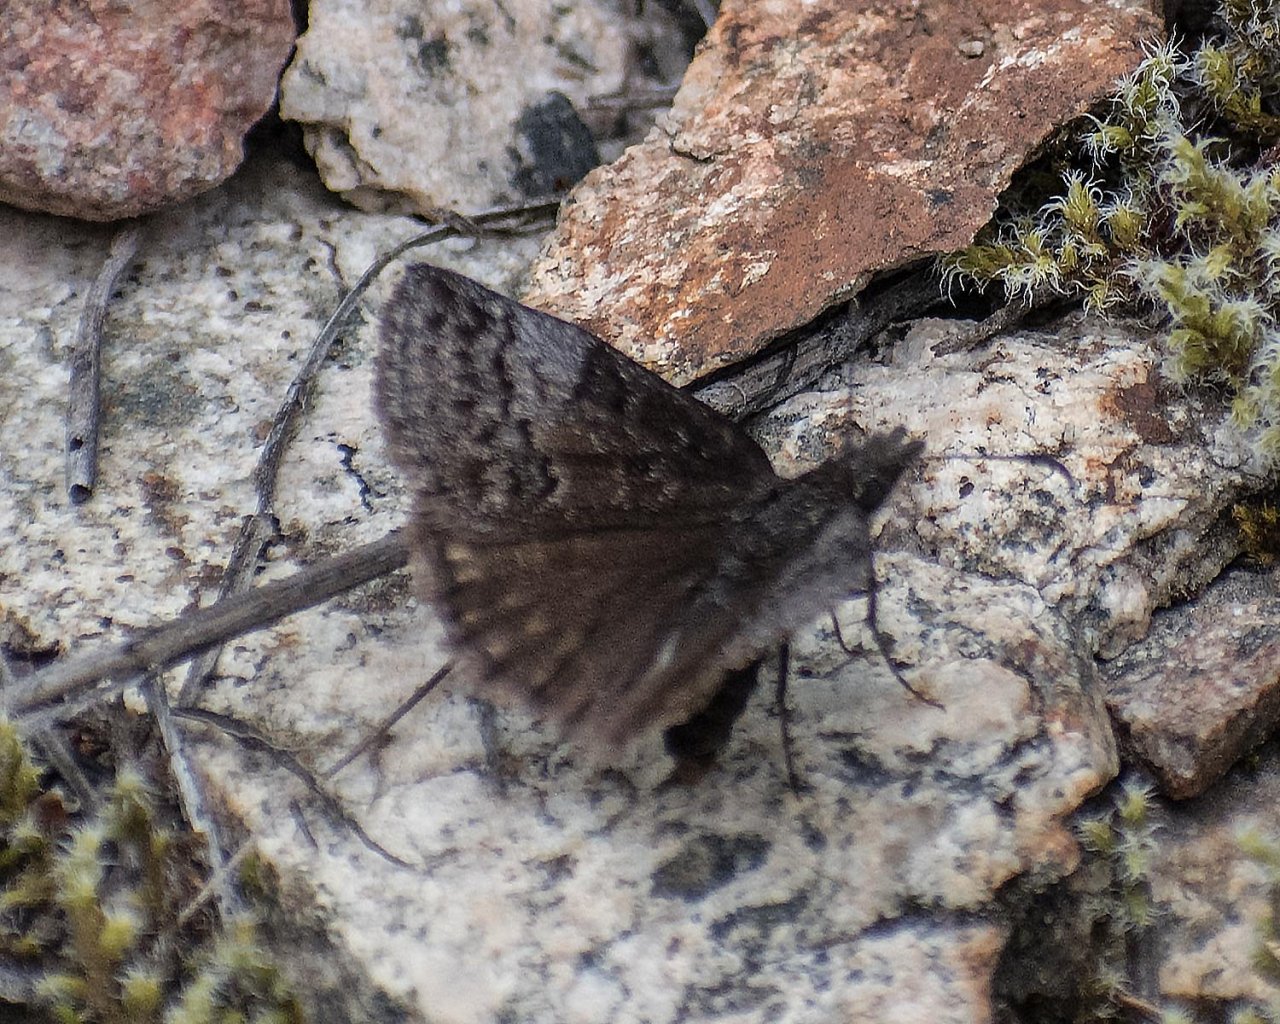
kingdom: Animalia
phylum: Arthropoda
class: Insecta
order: Lepidoptera
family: Hesperiidae
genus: Erynnis
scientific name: Erynnis icelus
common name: Dreamy Duskywing
